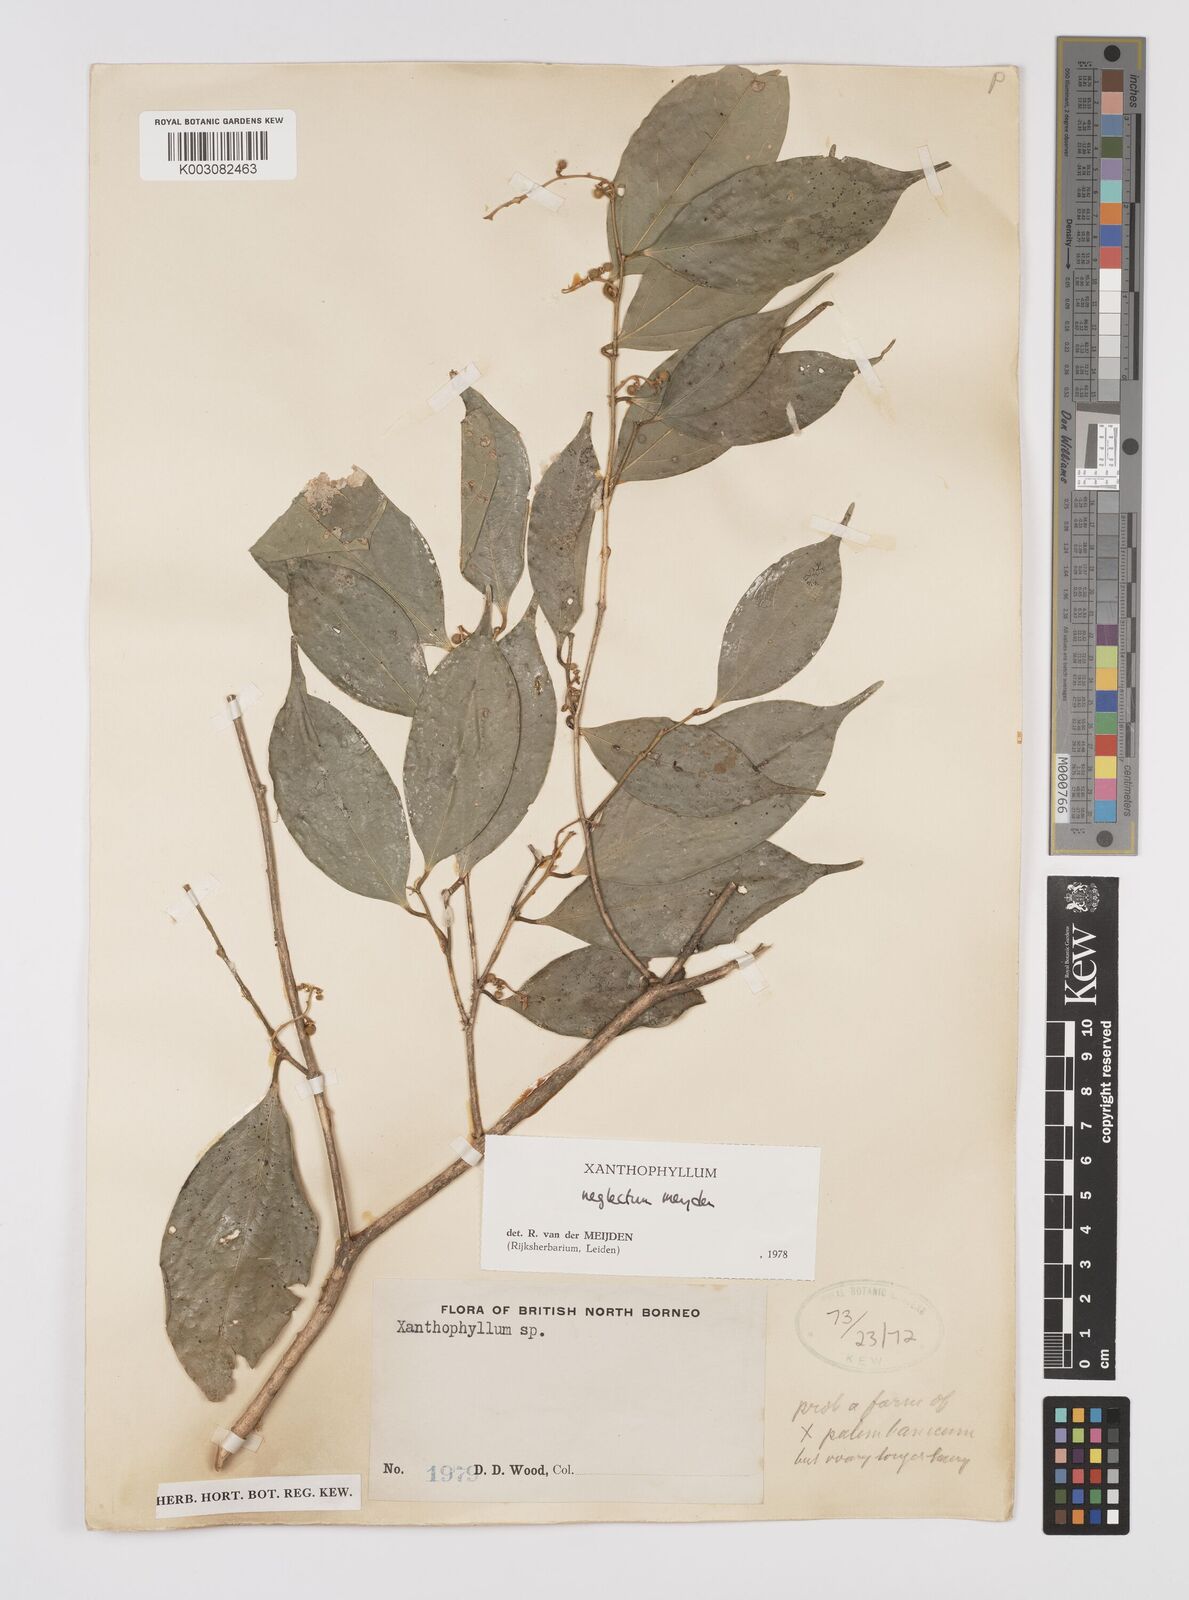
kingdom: Plantae
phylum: Tracheophyta
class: Magnoliopsida
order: Fabales
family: Polygalaceae
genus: Xanthophyllum
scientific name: Xanthophyllum neglectum
